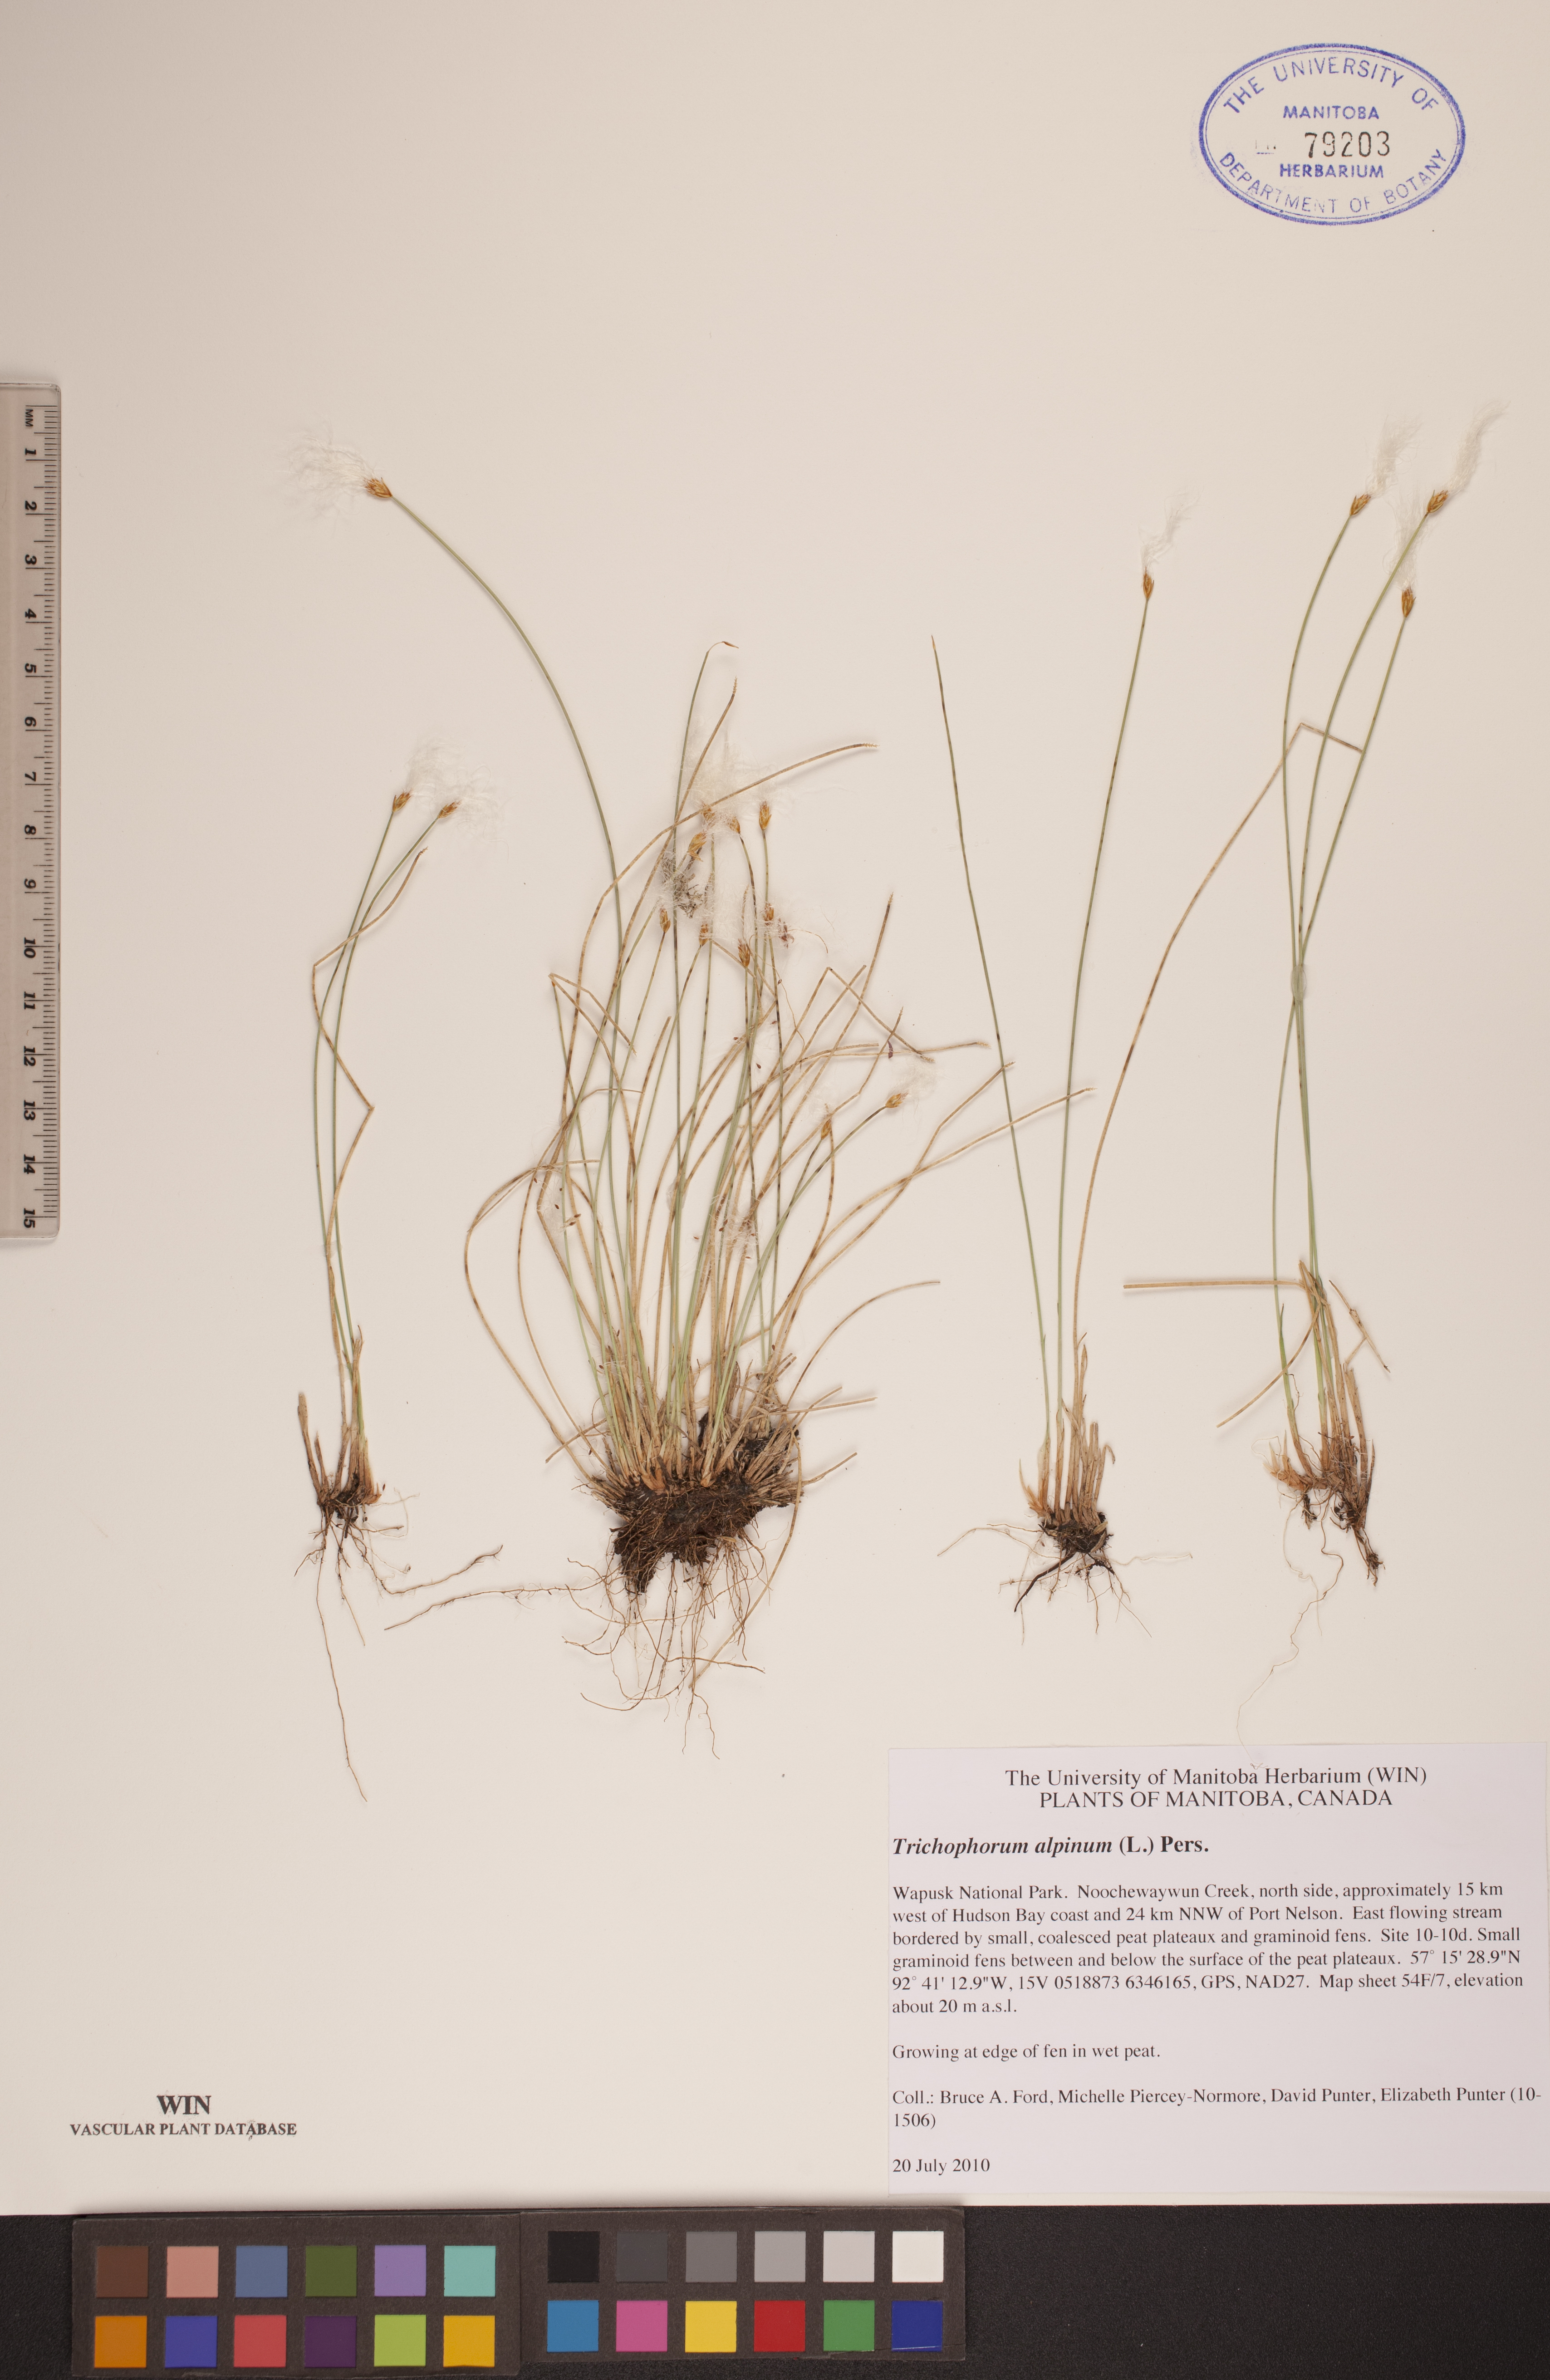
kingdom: Plantae
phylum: Tracheophyta
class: Liliopsida
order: Poales
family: Cyperaceae
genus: Trichophorum
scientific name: Trichophorum alpinum
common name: Alpine bulrush
